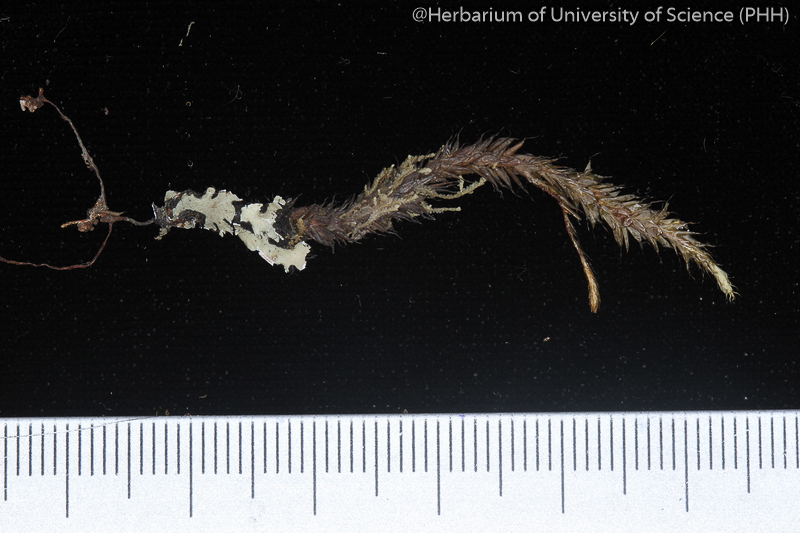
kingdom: Plantae
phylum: Bryophyta
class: Bryopsida
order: Hypnales
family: Pterobryaceae
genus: Pterobryopsis
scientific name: Pterobryopsis subcrassiuscula
